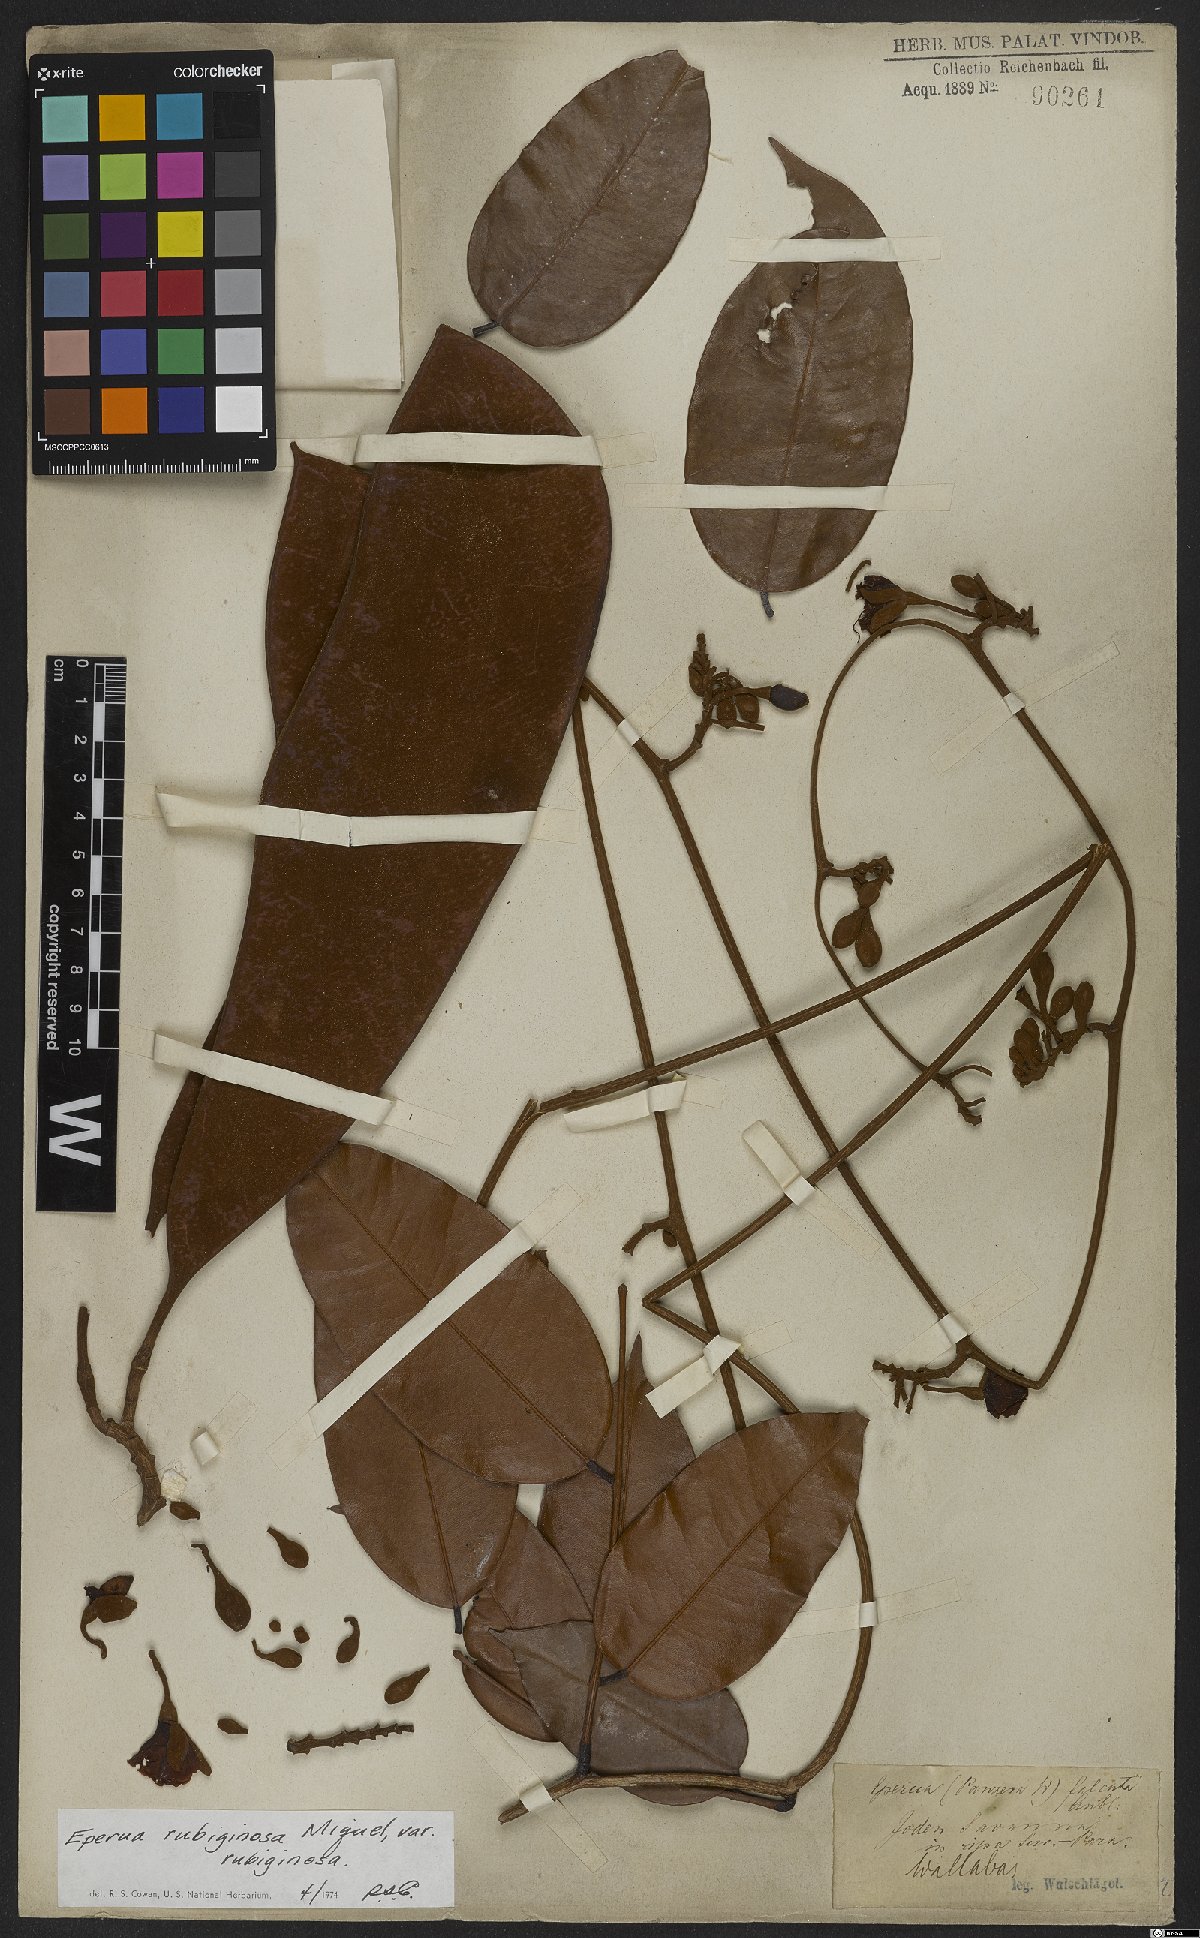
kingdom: Plantae
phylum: Tracheophyta
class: Magnoliopsida
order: Fabales
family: Fabaceae
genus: Eperua
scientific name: Eperua rubiginosa
